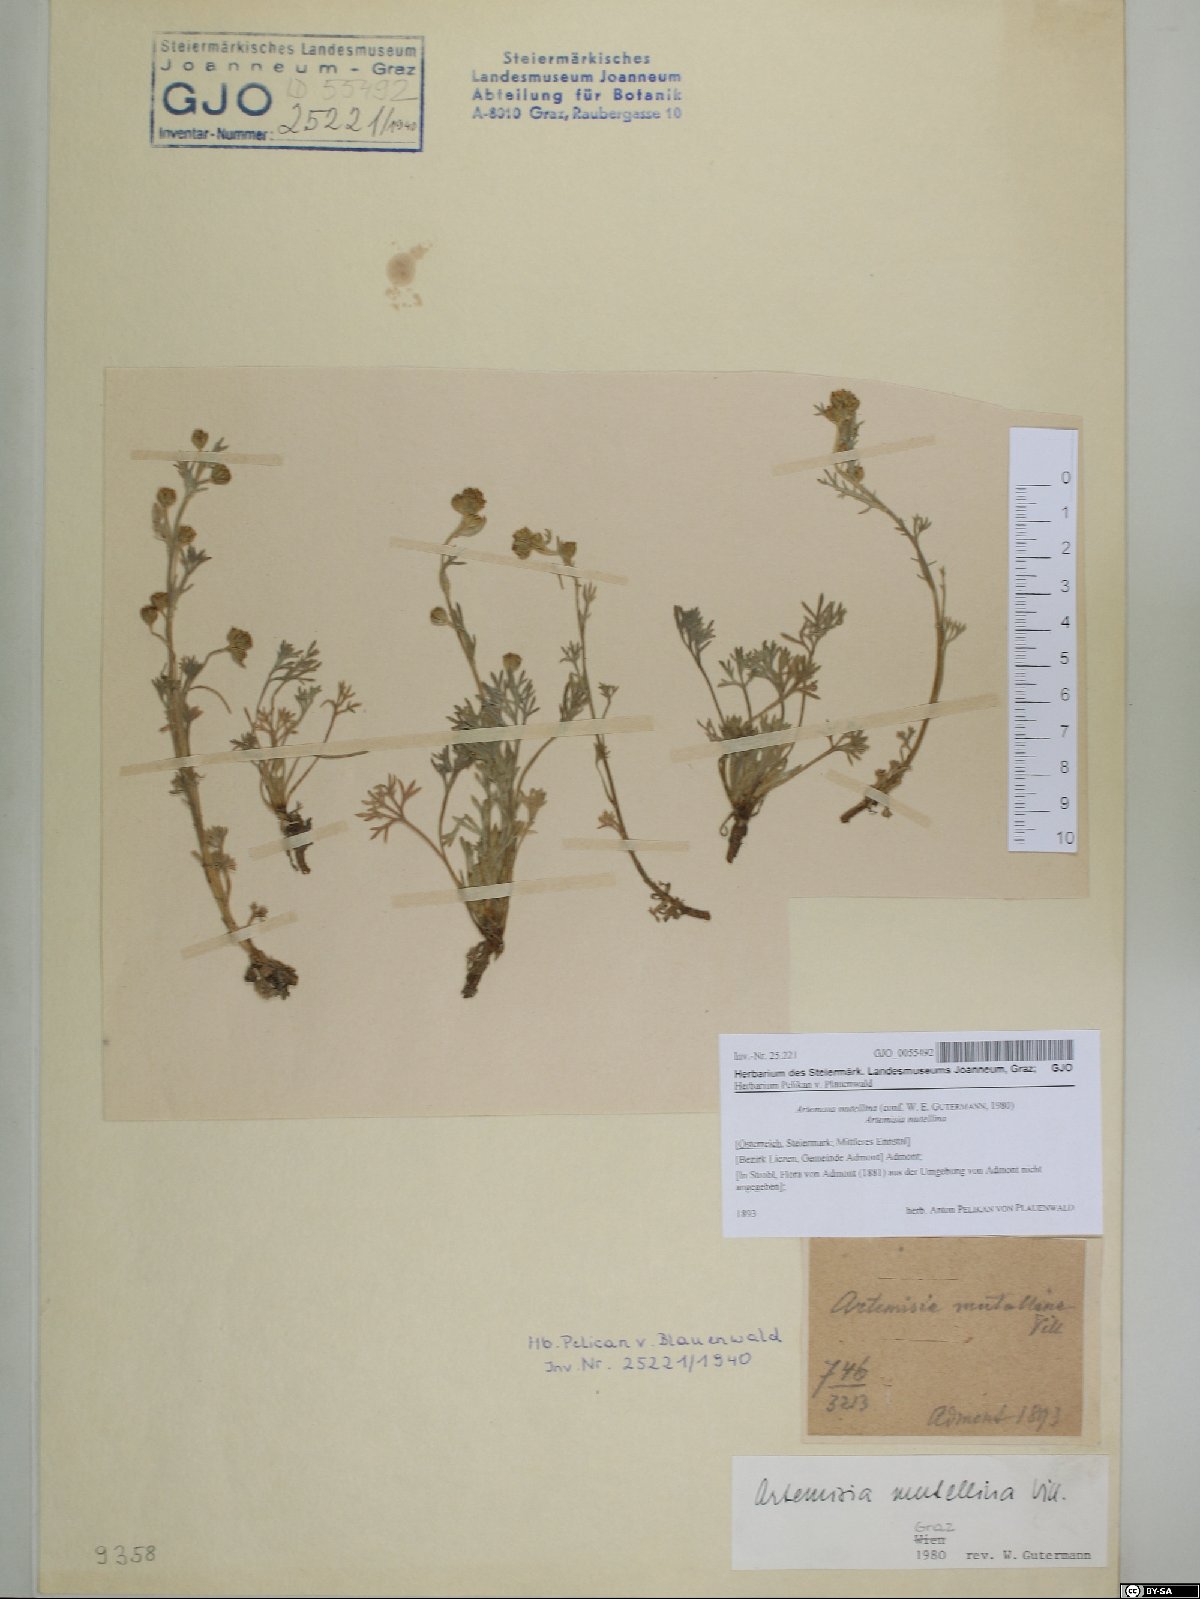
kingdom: Plantae
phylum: Tracheophyta
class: Magnoliopsida
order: Asterales
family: Asteraceae
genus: Artemisia
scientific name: Artemisia mutellina
